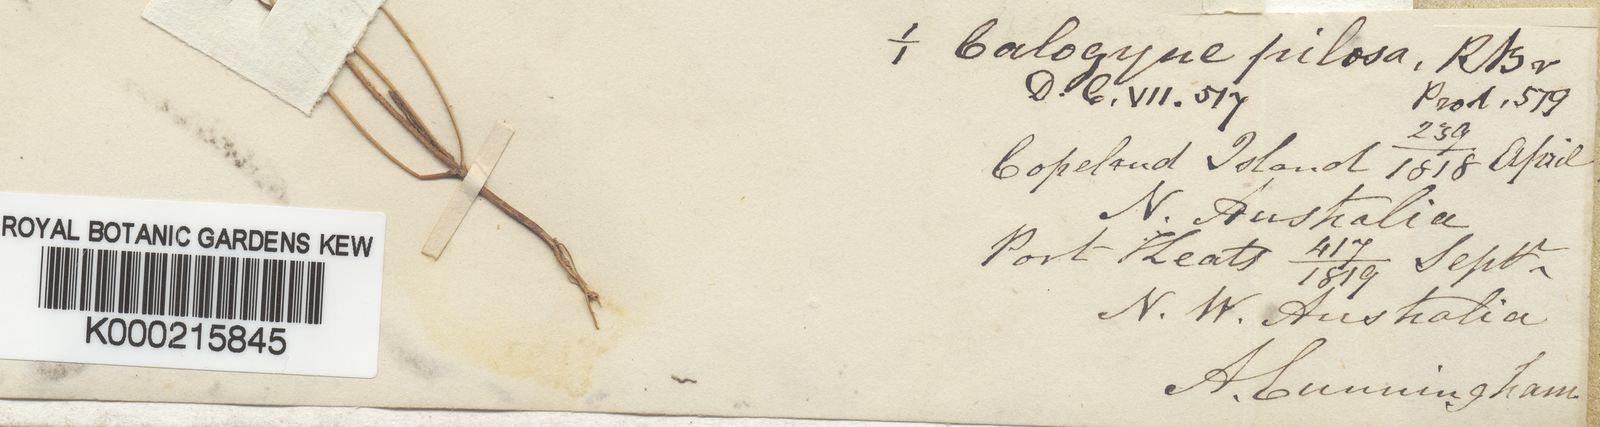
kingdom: Plantae
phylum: Tracheophyta
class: Magnoliopsida
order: Asterales
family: Goodeniaceae
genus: Goodenia
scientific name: Goodenia armstrongiana
